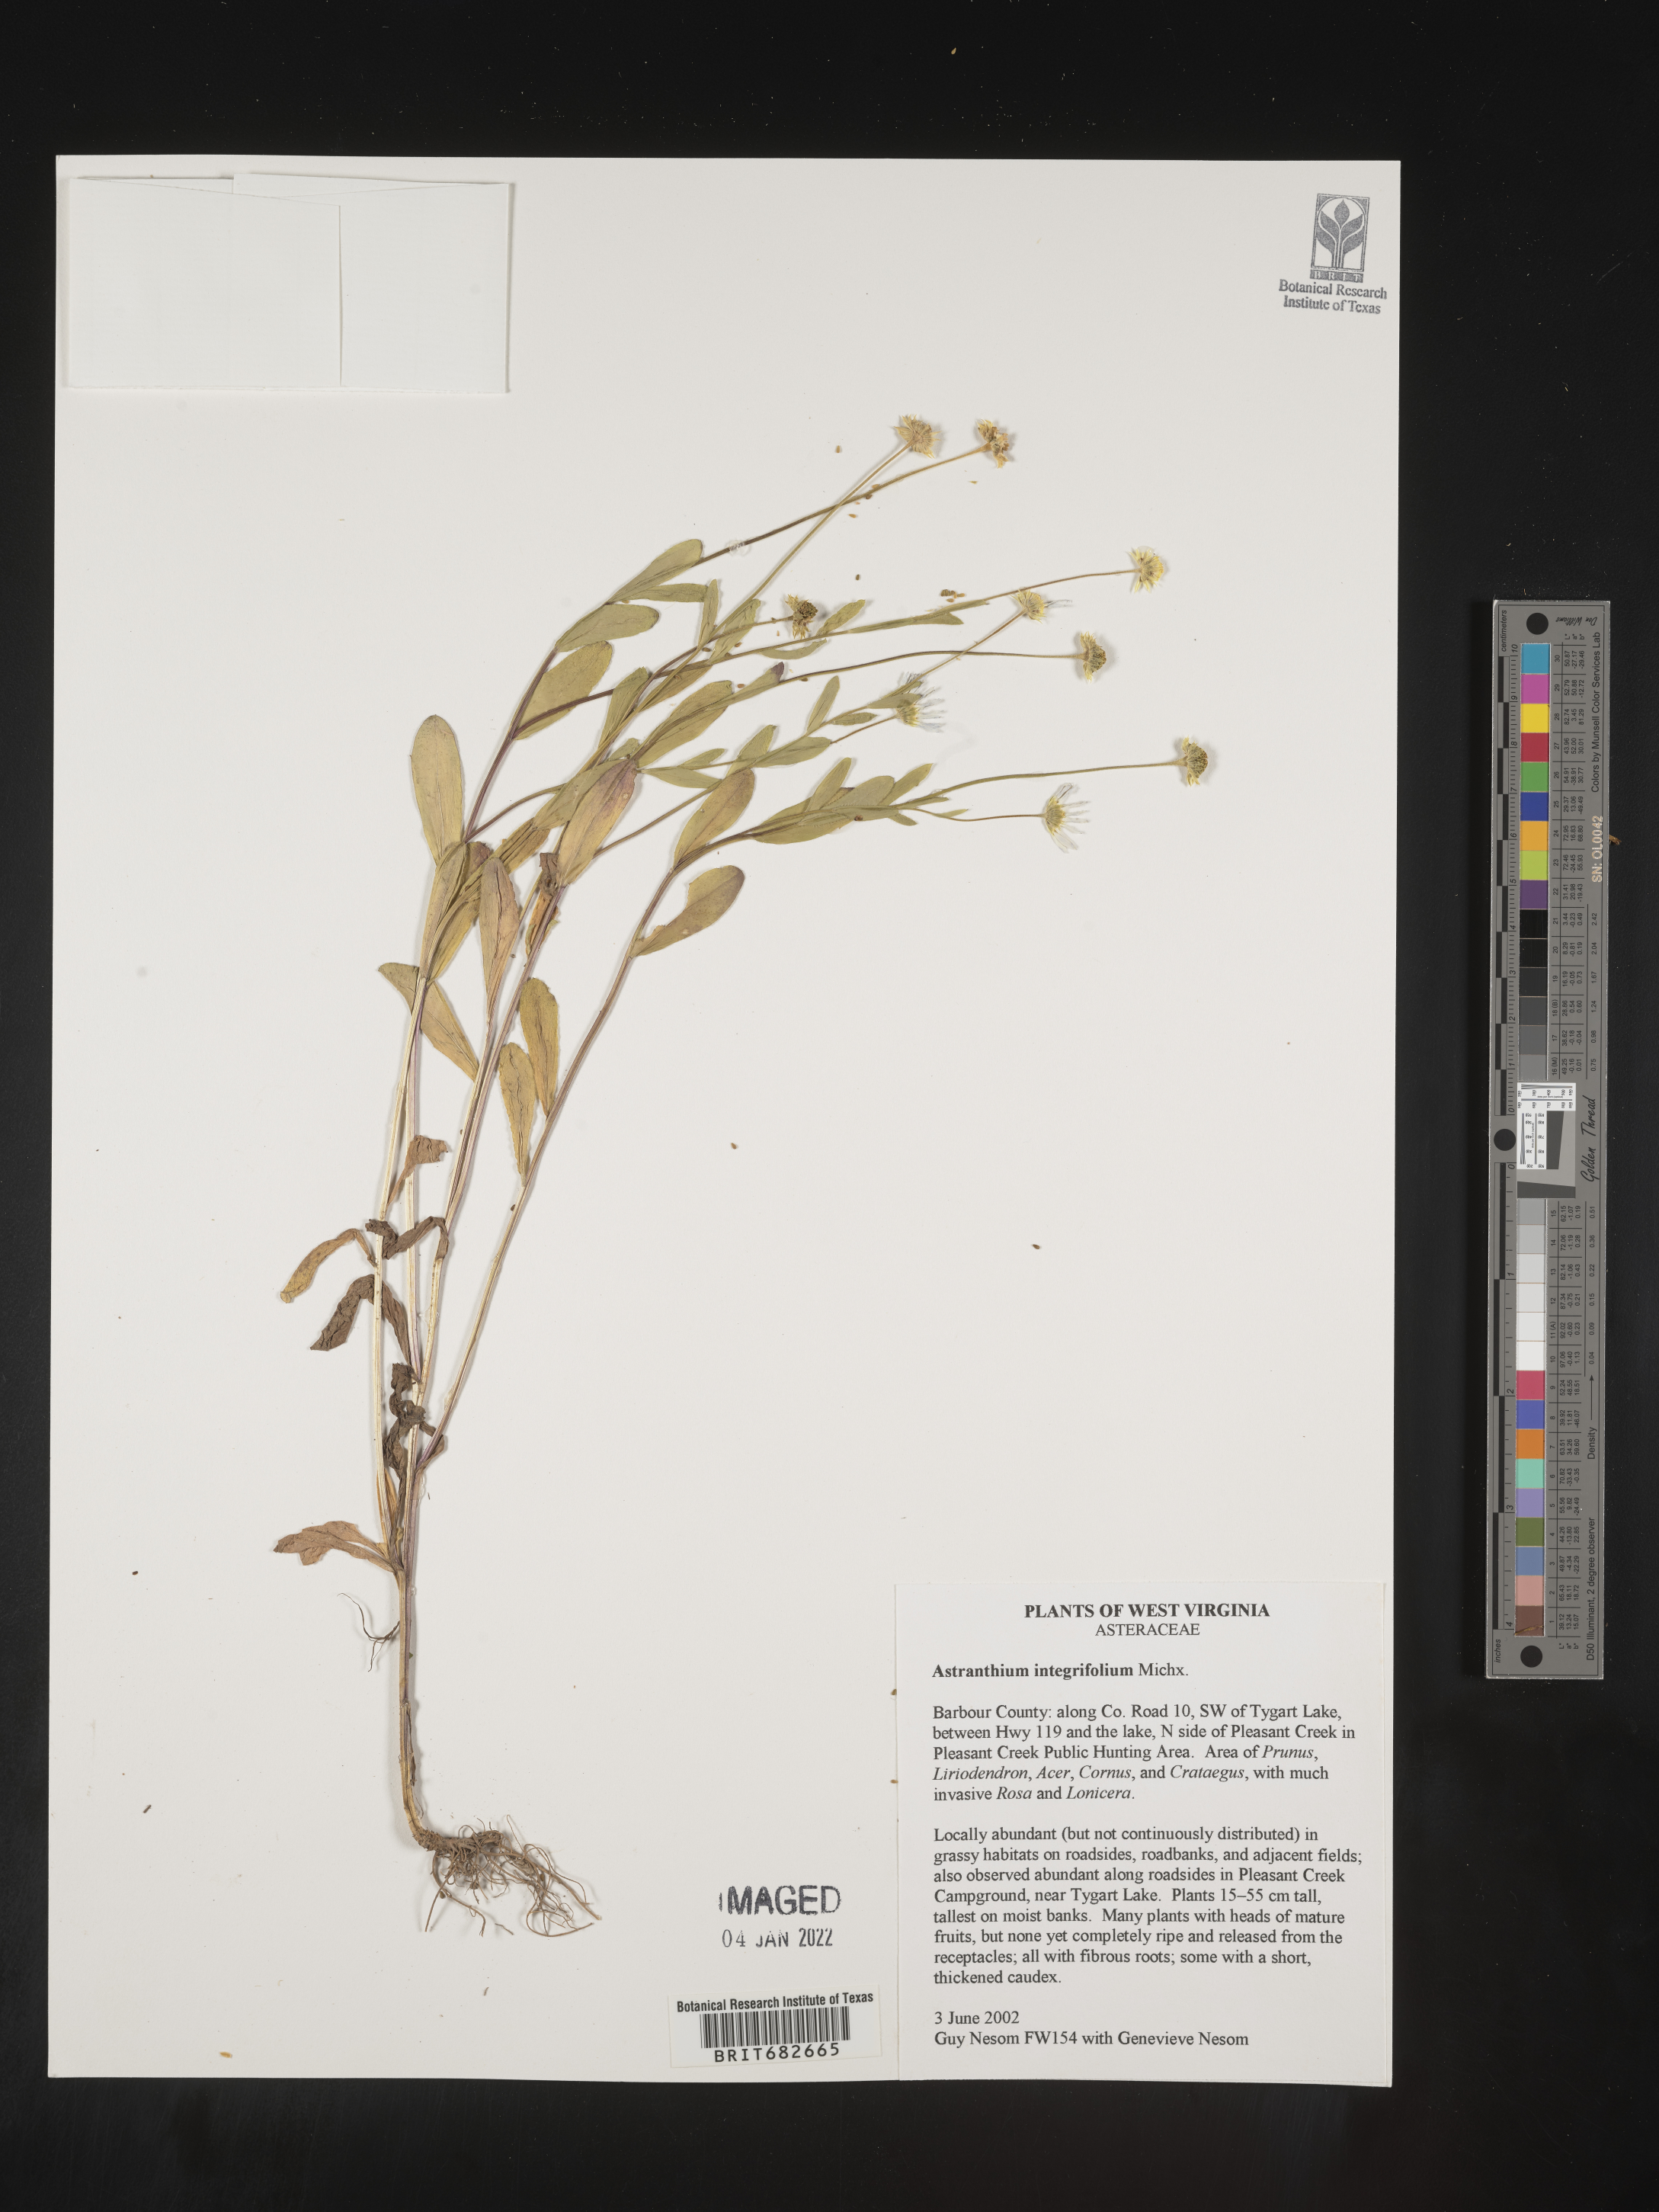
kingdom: Plantae
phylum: Tracheophyta
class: Magnoliopsida
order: Asterales
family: Asteraceae
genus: Astranthium
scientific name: Astranthium
